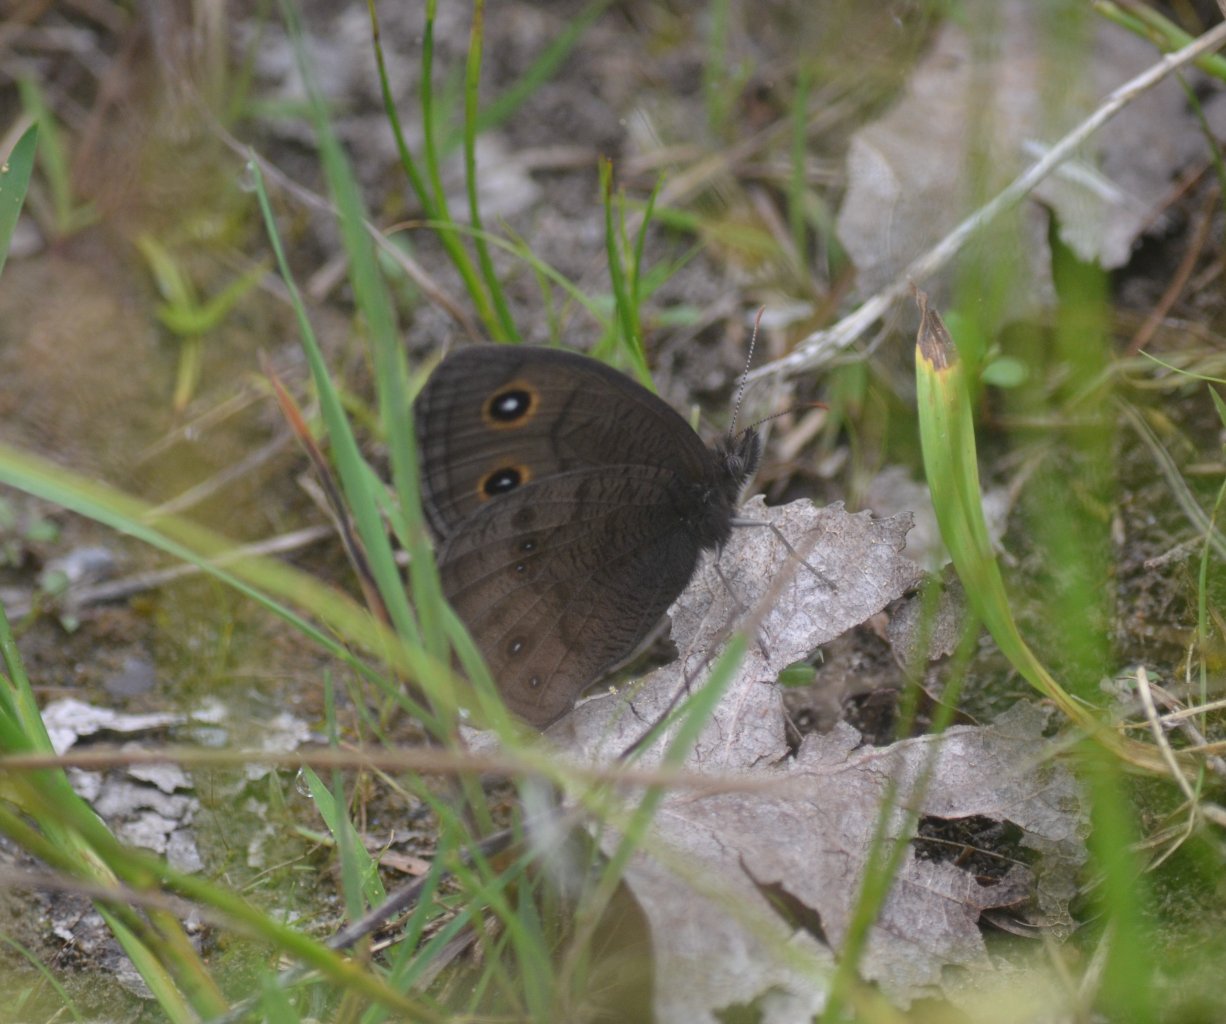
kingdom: Animalia
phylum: Arthropoda
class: Insecta
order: Lepidoptera
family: Nymphalidae
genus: Cercyonis
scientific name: Cercyonis pegala
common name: Common Wood-Nymph
